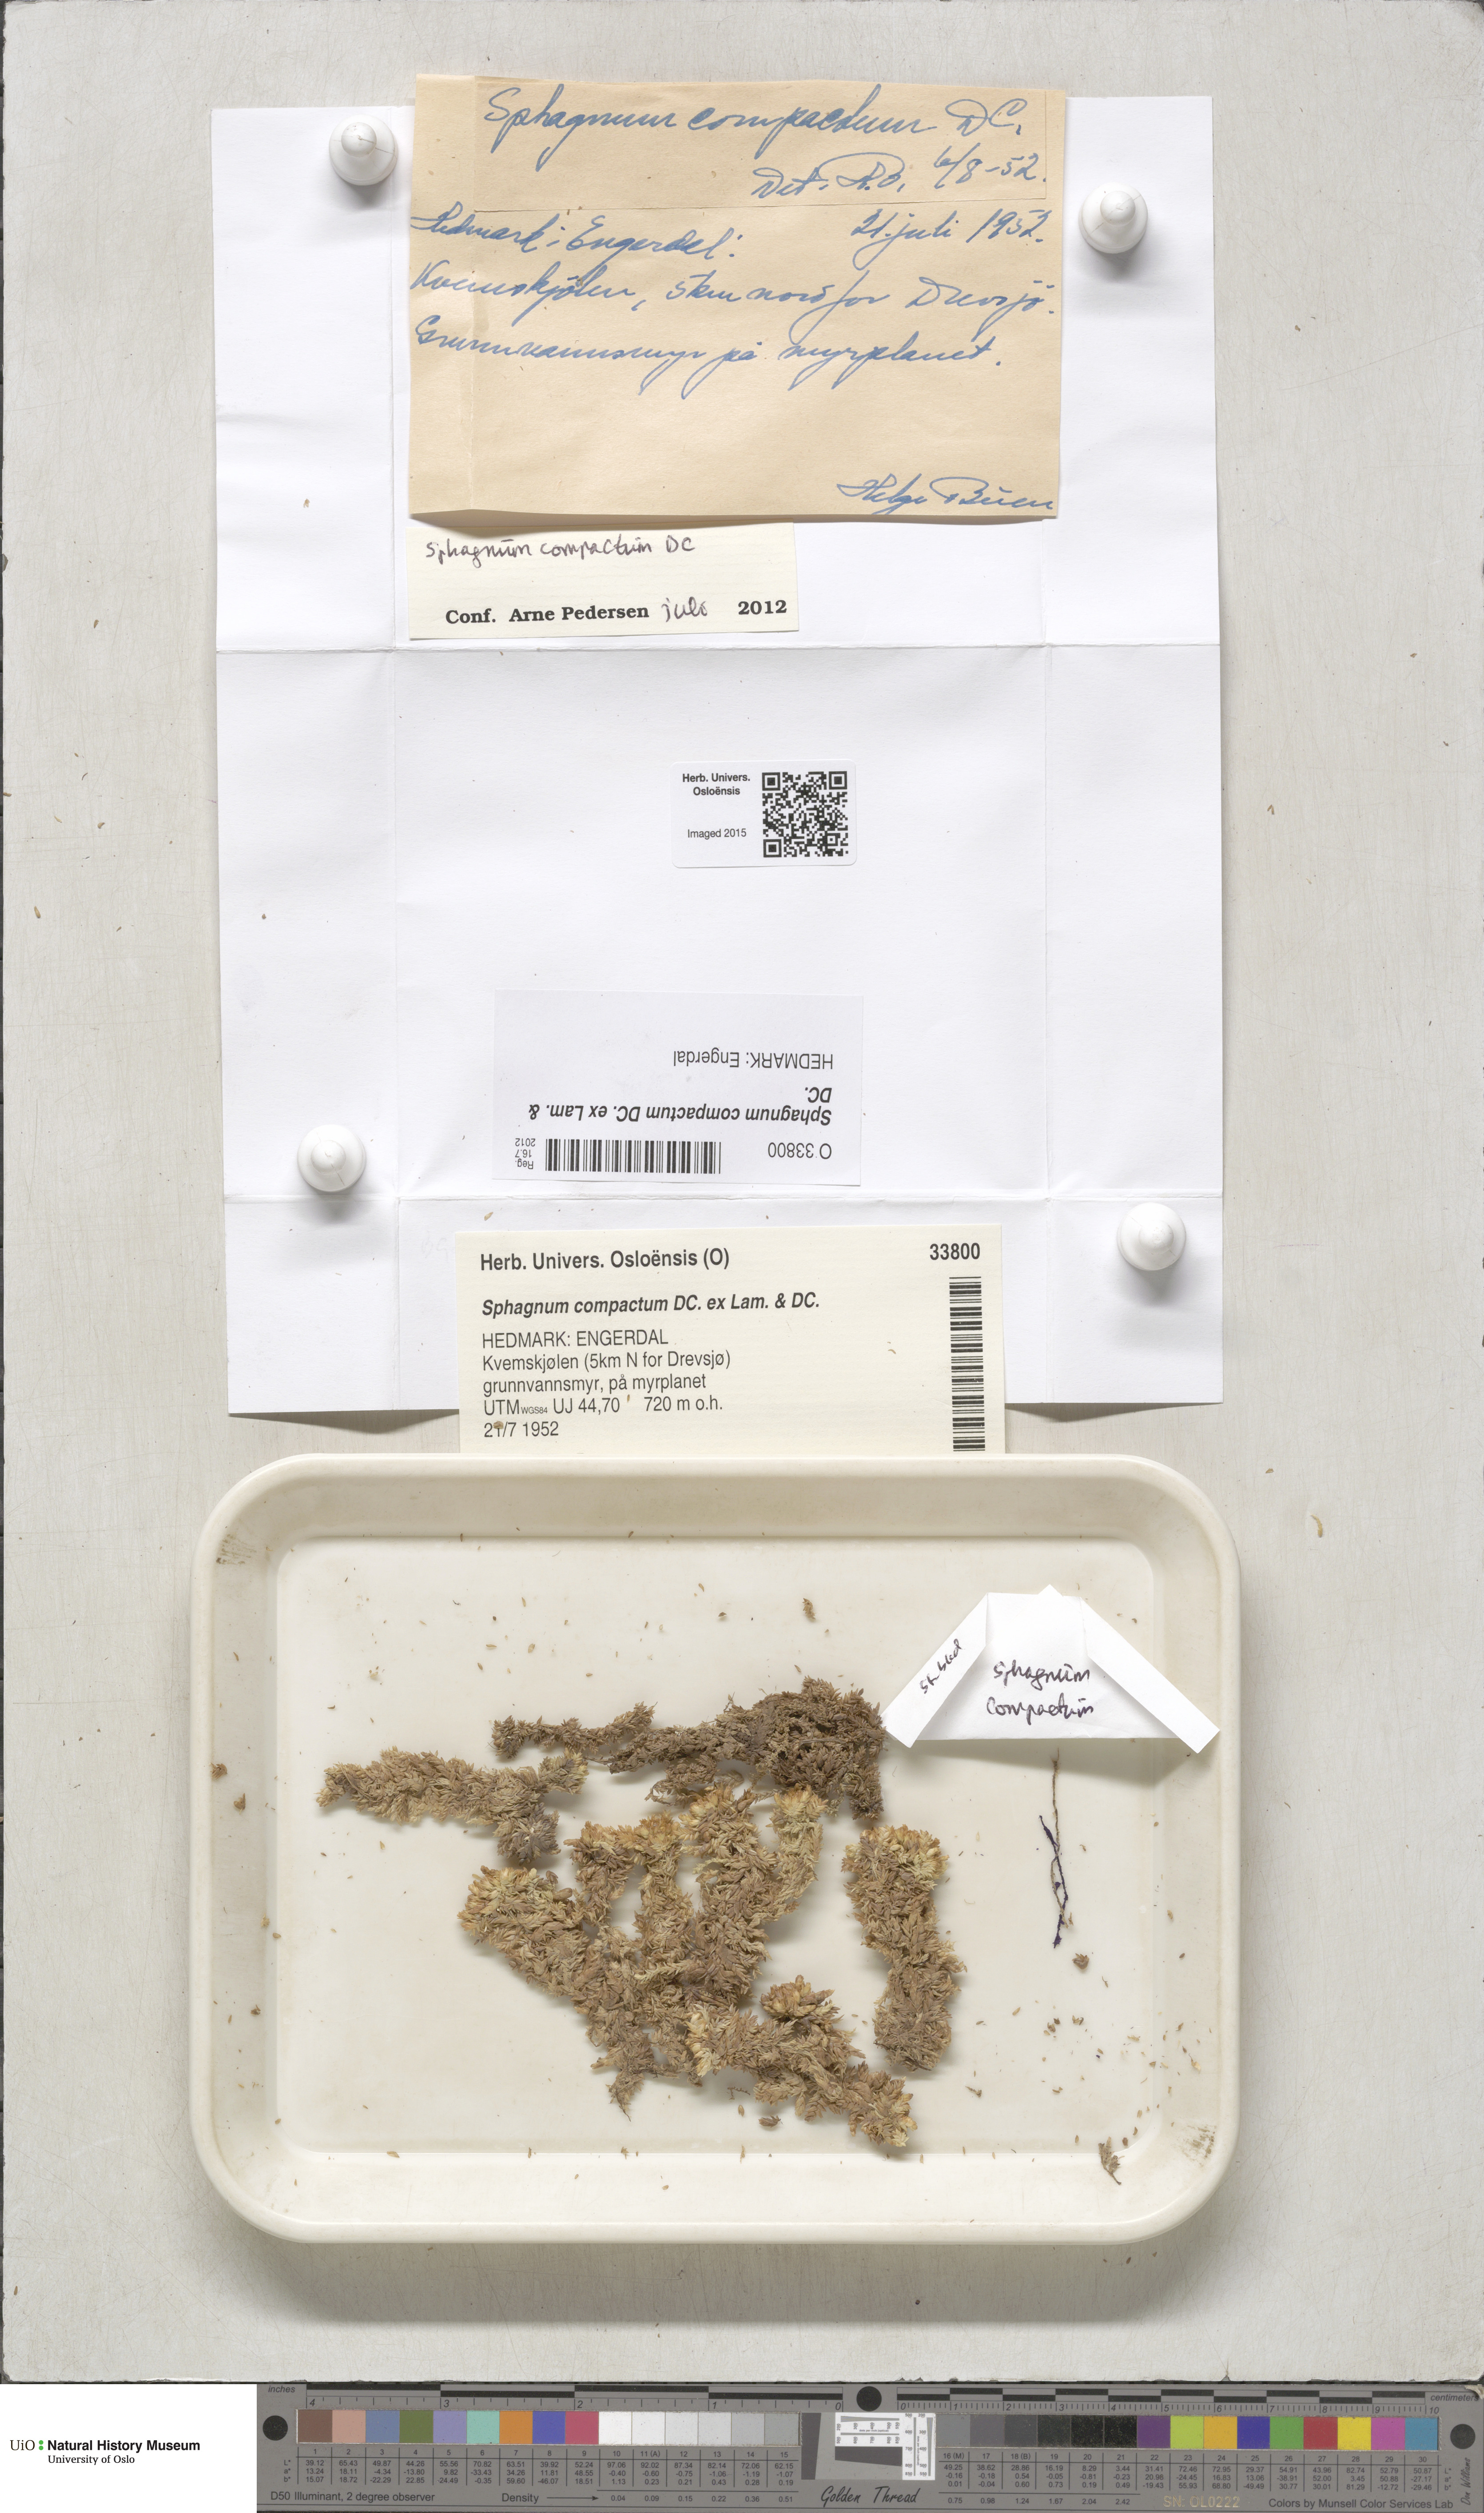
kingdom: Plantae
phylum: Bryophyta
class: Sphagnopsida
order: Sphagnales
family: Sphagnaceae
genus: Sphagnum
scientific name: Sphagnum compactum
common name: Compact peat moss
